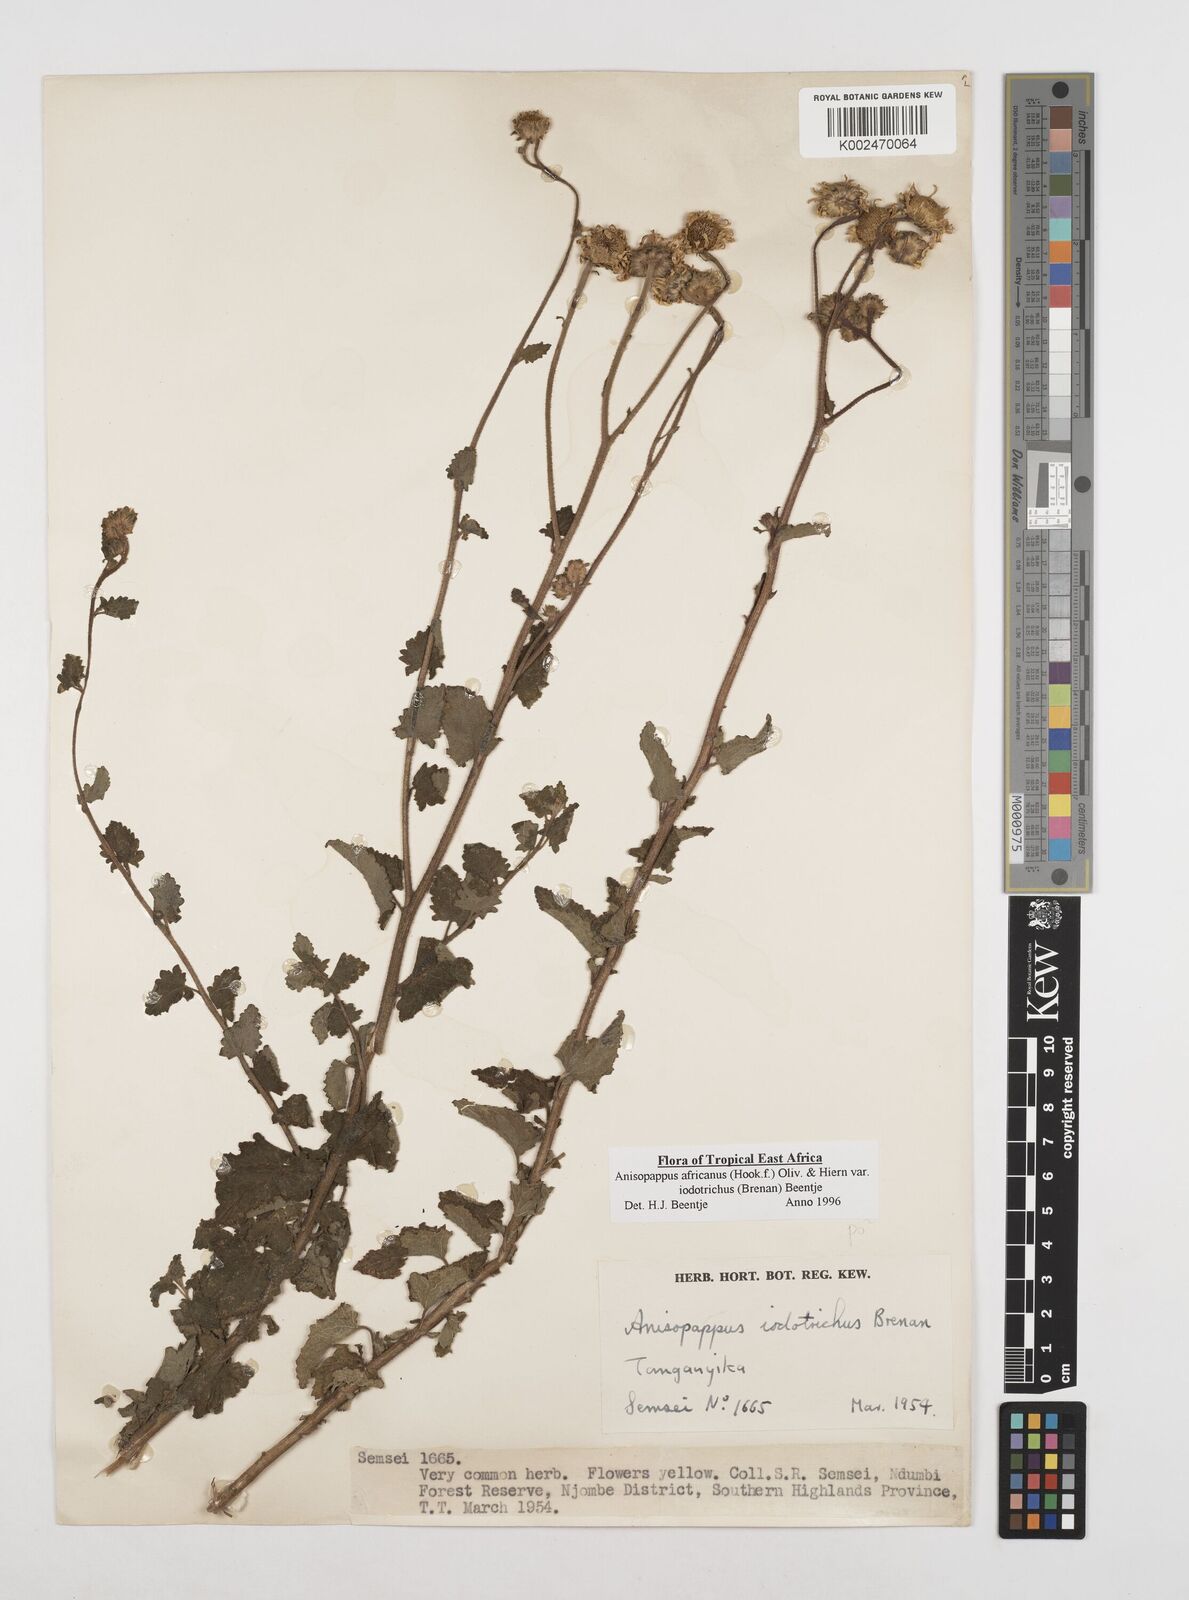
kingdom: Plantae
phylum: Tracheophyta
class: Magnoliopsida
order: Asterales
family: Asteraceae
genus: Anisopappus
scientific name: Anisopappus buchwaldii
